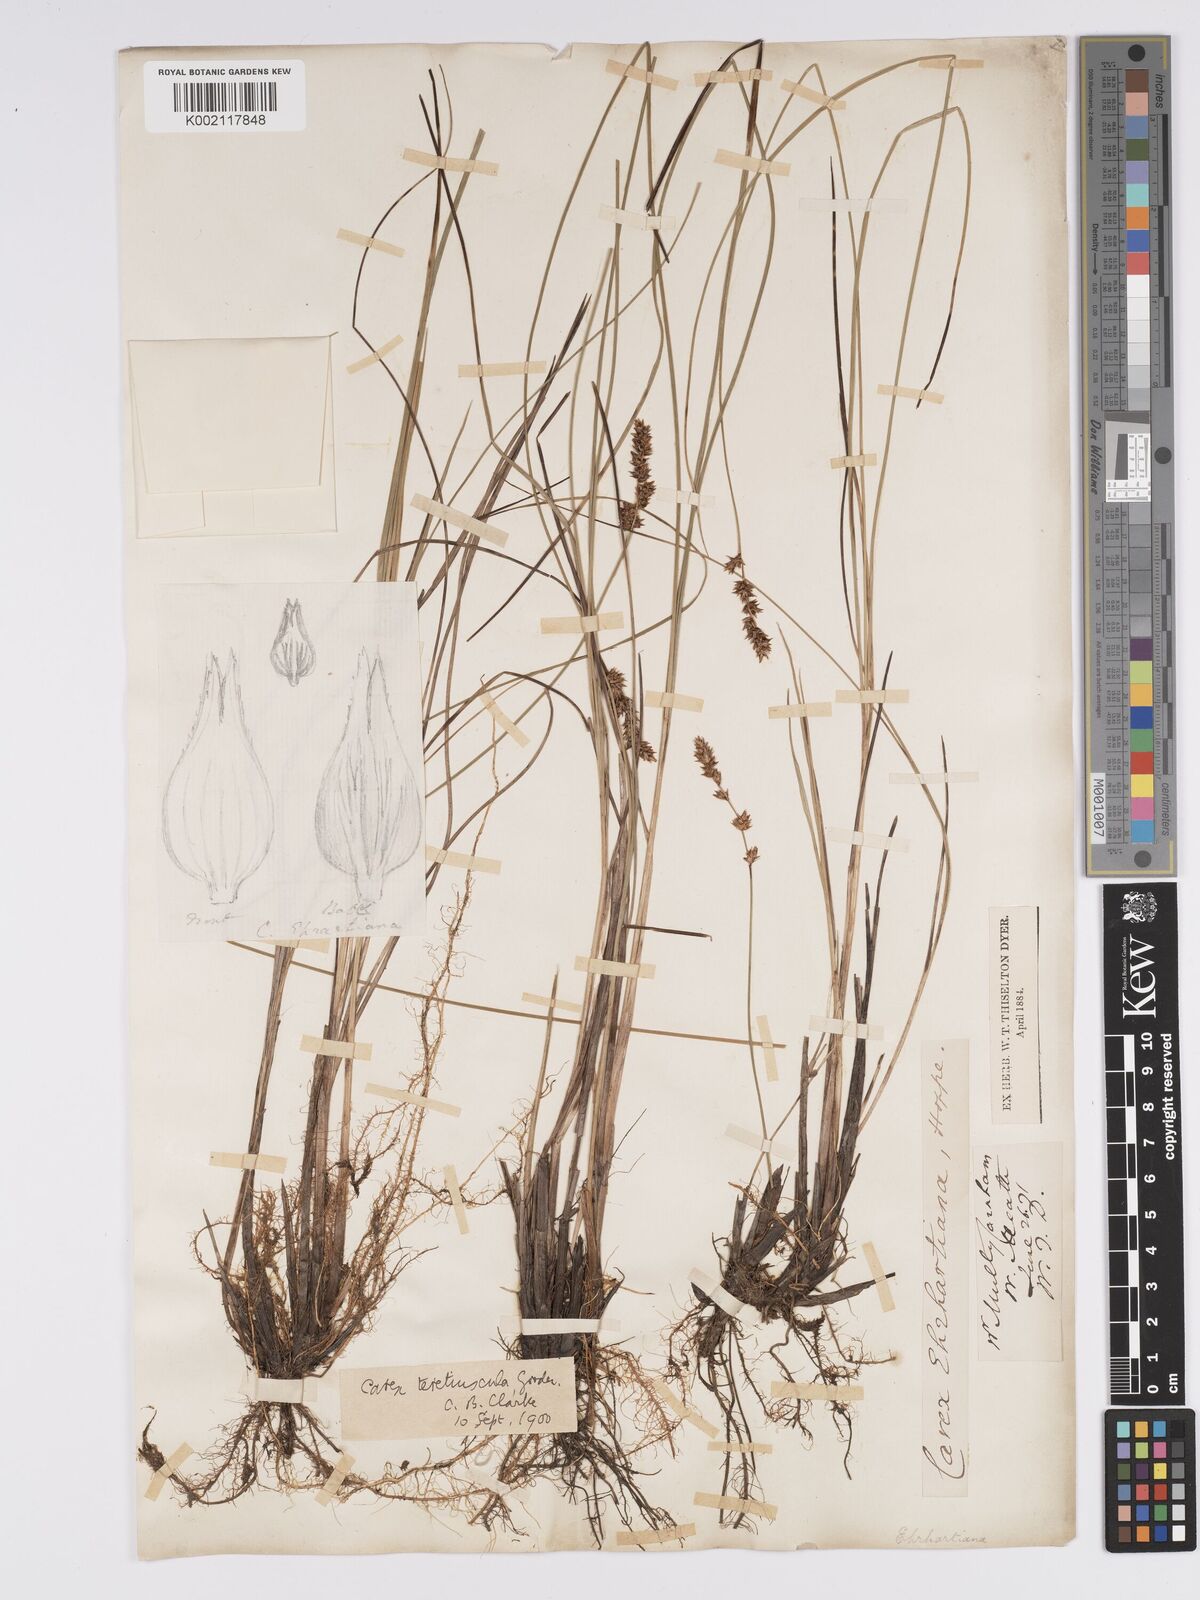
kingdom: Plantae
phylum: Tracheophyta
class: Liliopsida
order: Poales
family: Cyperaceae
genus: Carex
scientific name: Carex diandra
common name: Lesser tussock-sedge
